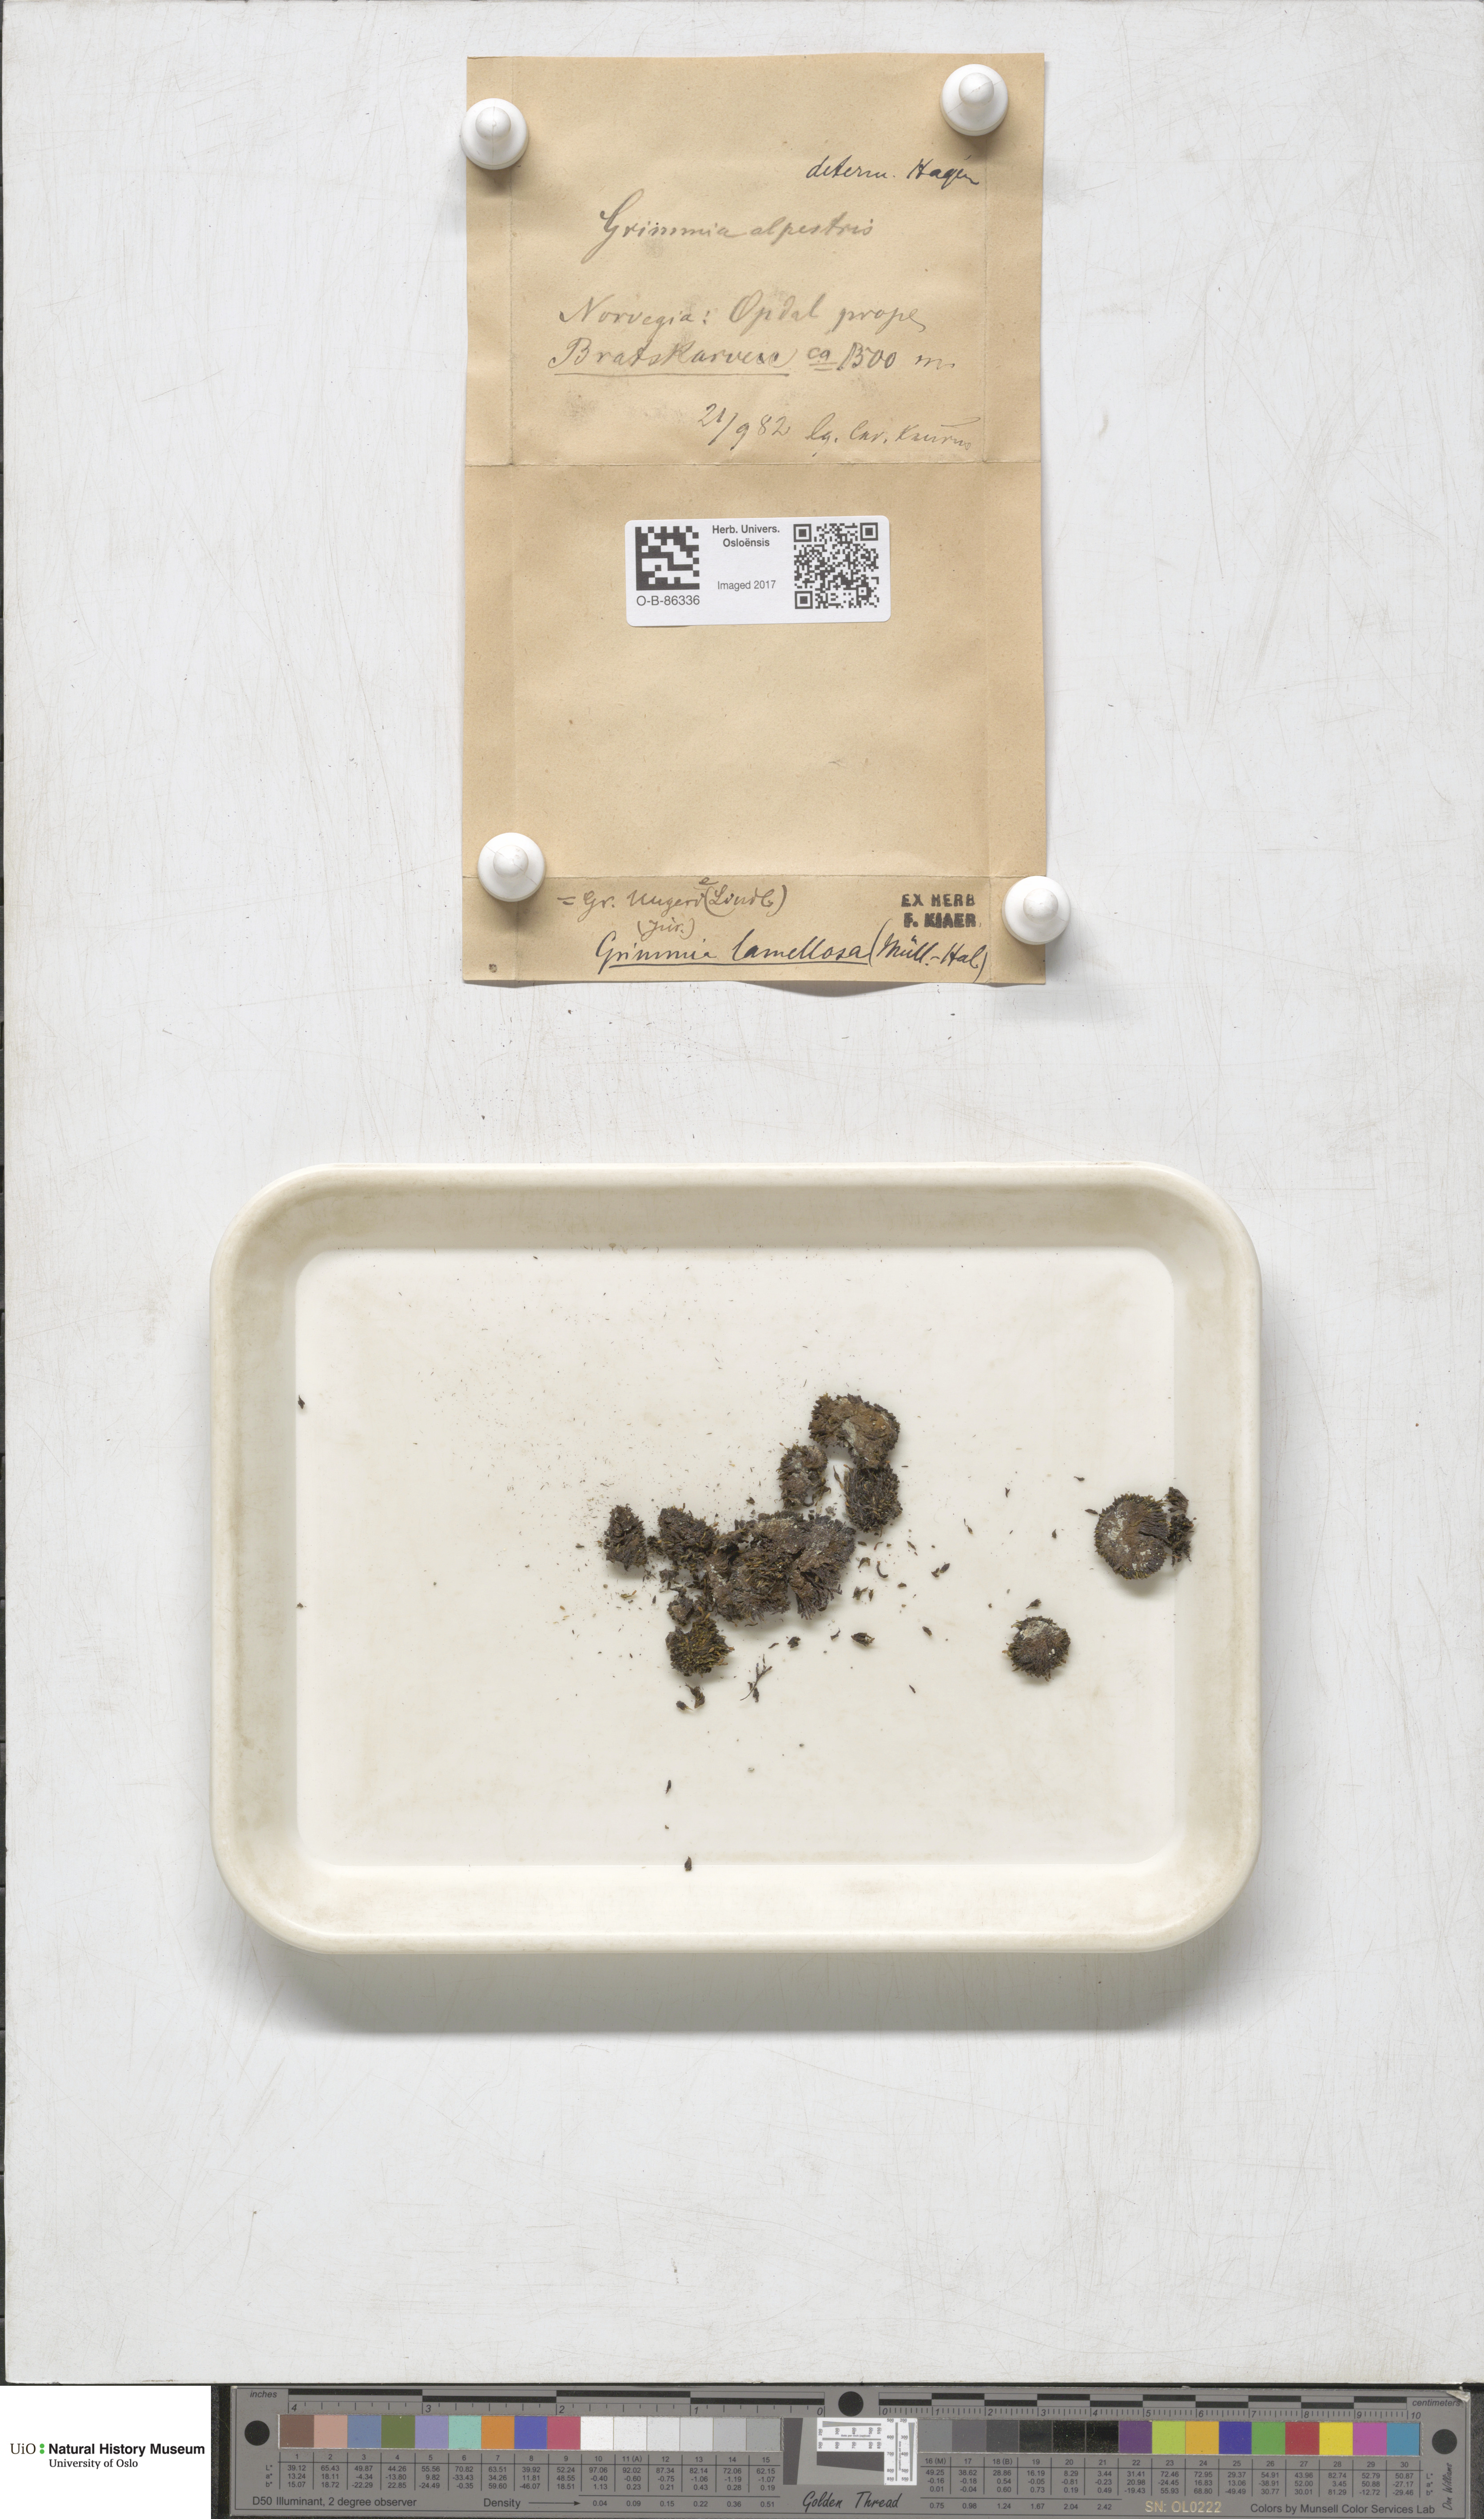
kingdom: Plantae
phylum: Bryophyta
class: Bryopsida
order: Grimmiales
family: Grimmiaceae
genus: Grimmia
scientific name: Grimmia donniana
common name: Donn's grimmia
